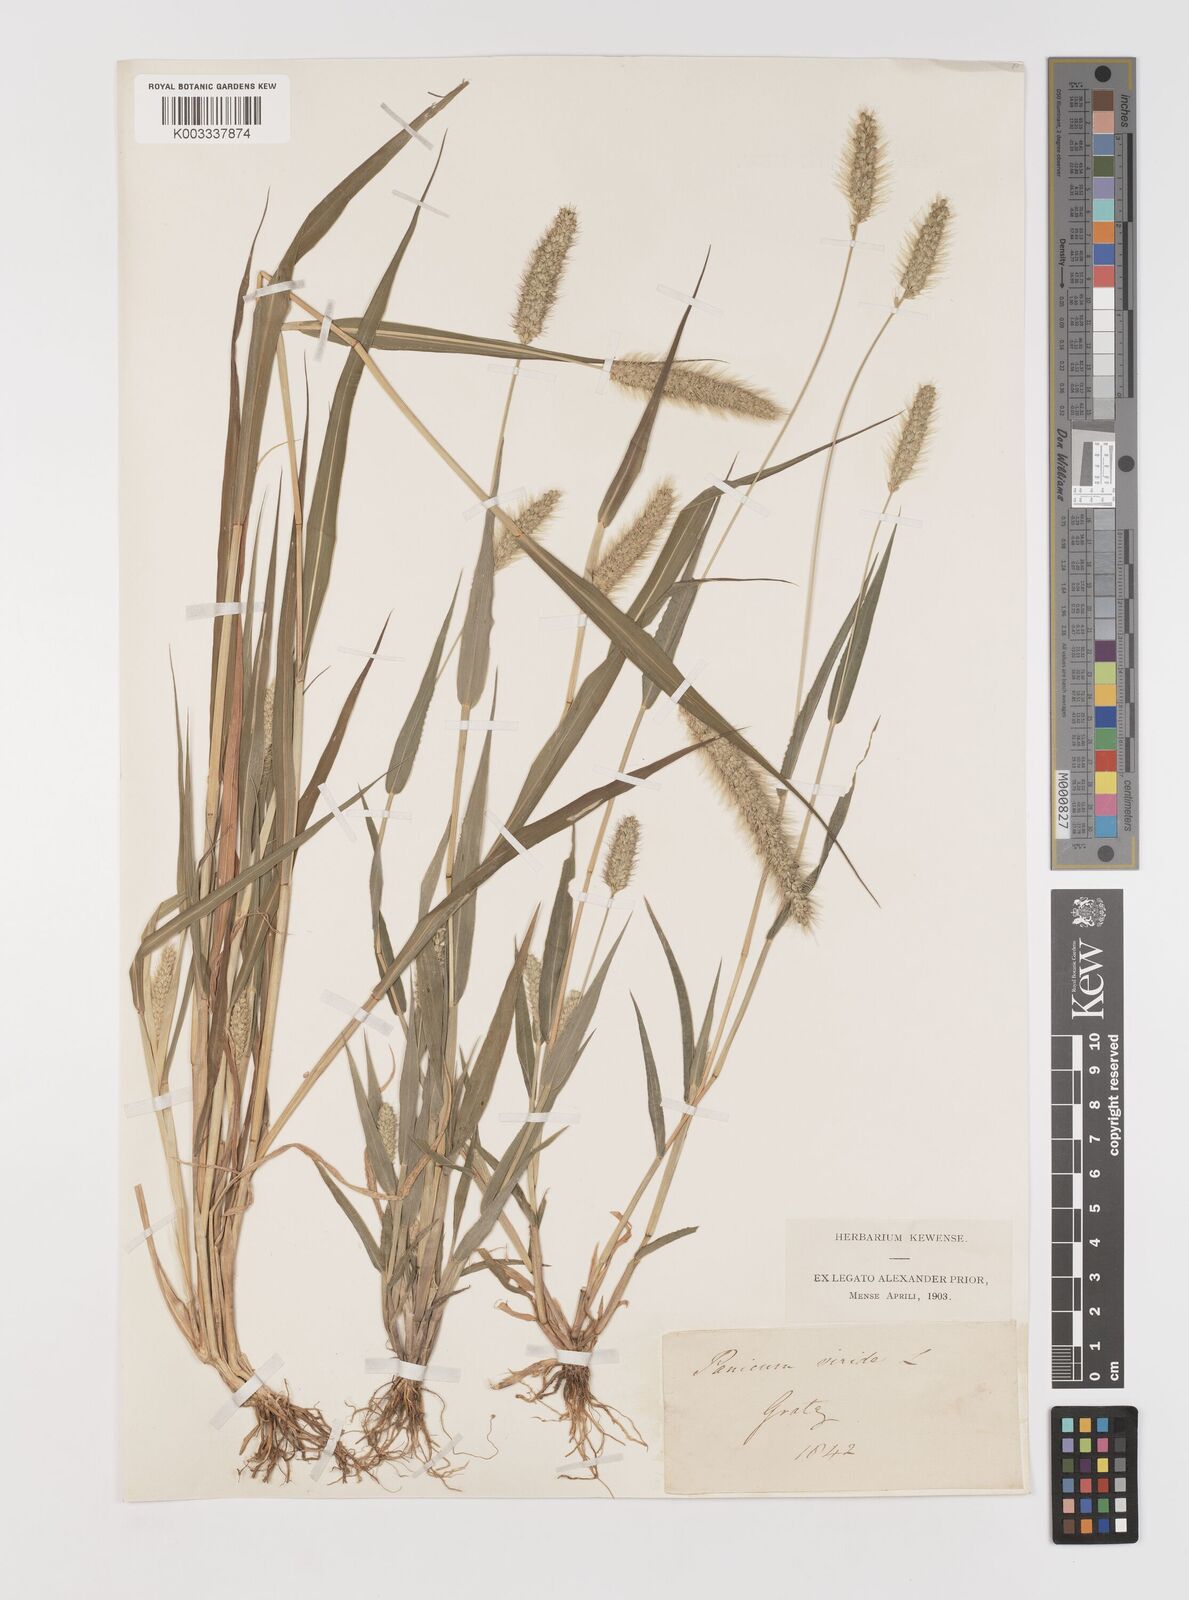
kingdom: Plantae
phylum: Tracheophyta
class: Liliopsida
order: Poales
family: Poaceae
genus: Setaria
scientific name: Setaria viridis
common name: Green bristlegrass
